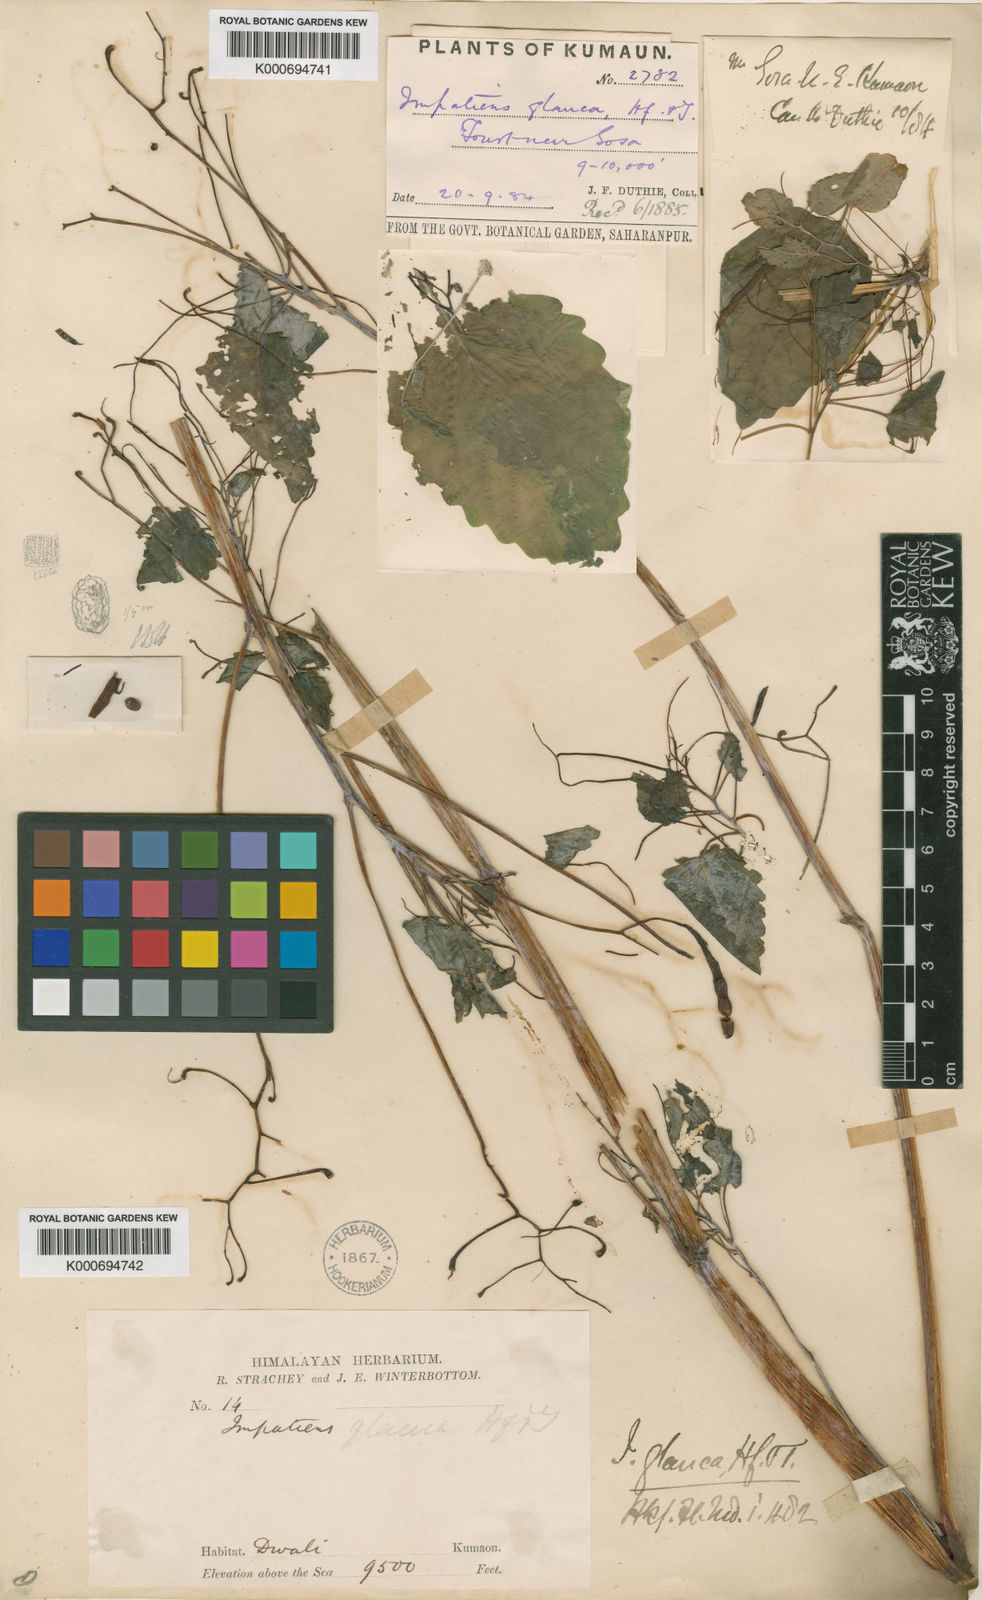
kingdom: Plantae
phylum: Tracheophyta
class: Magnoliopsida
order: Ericales
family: Balsaminaceae
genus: Impatiens
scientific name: Impatiens glauca
